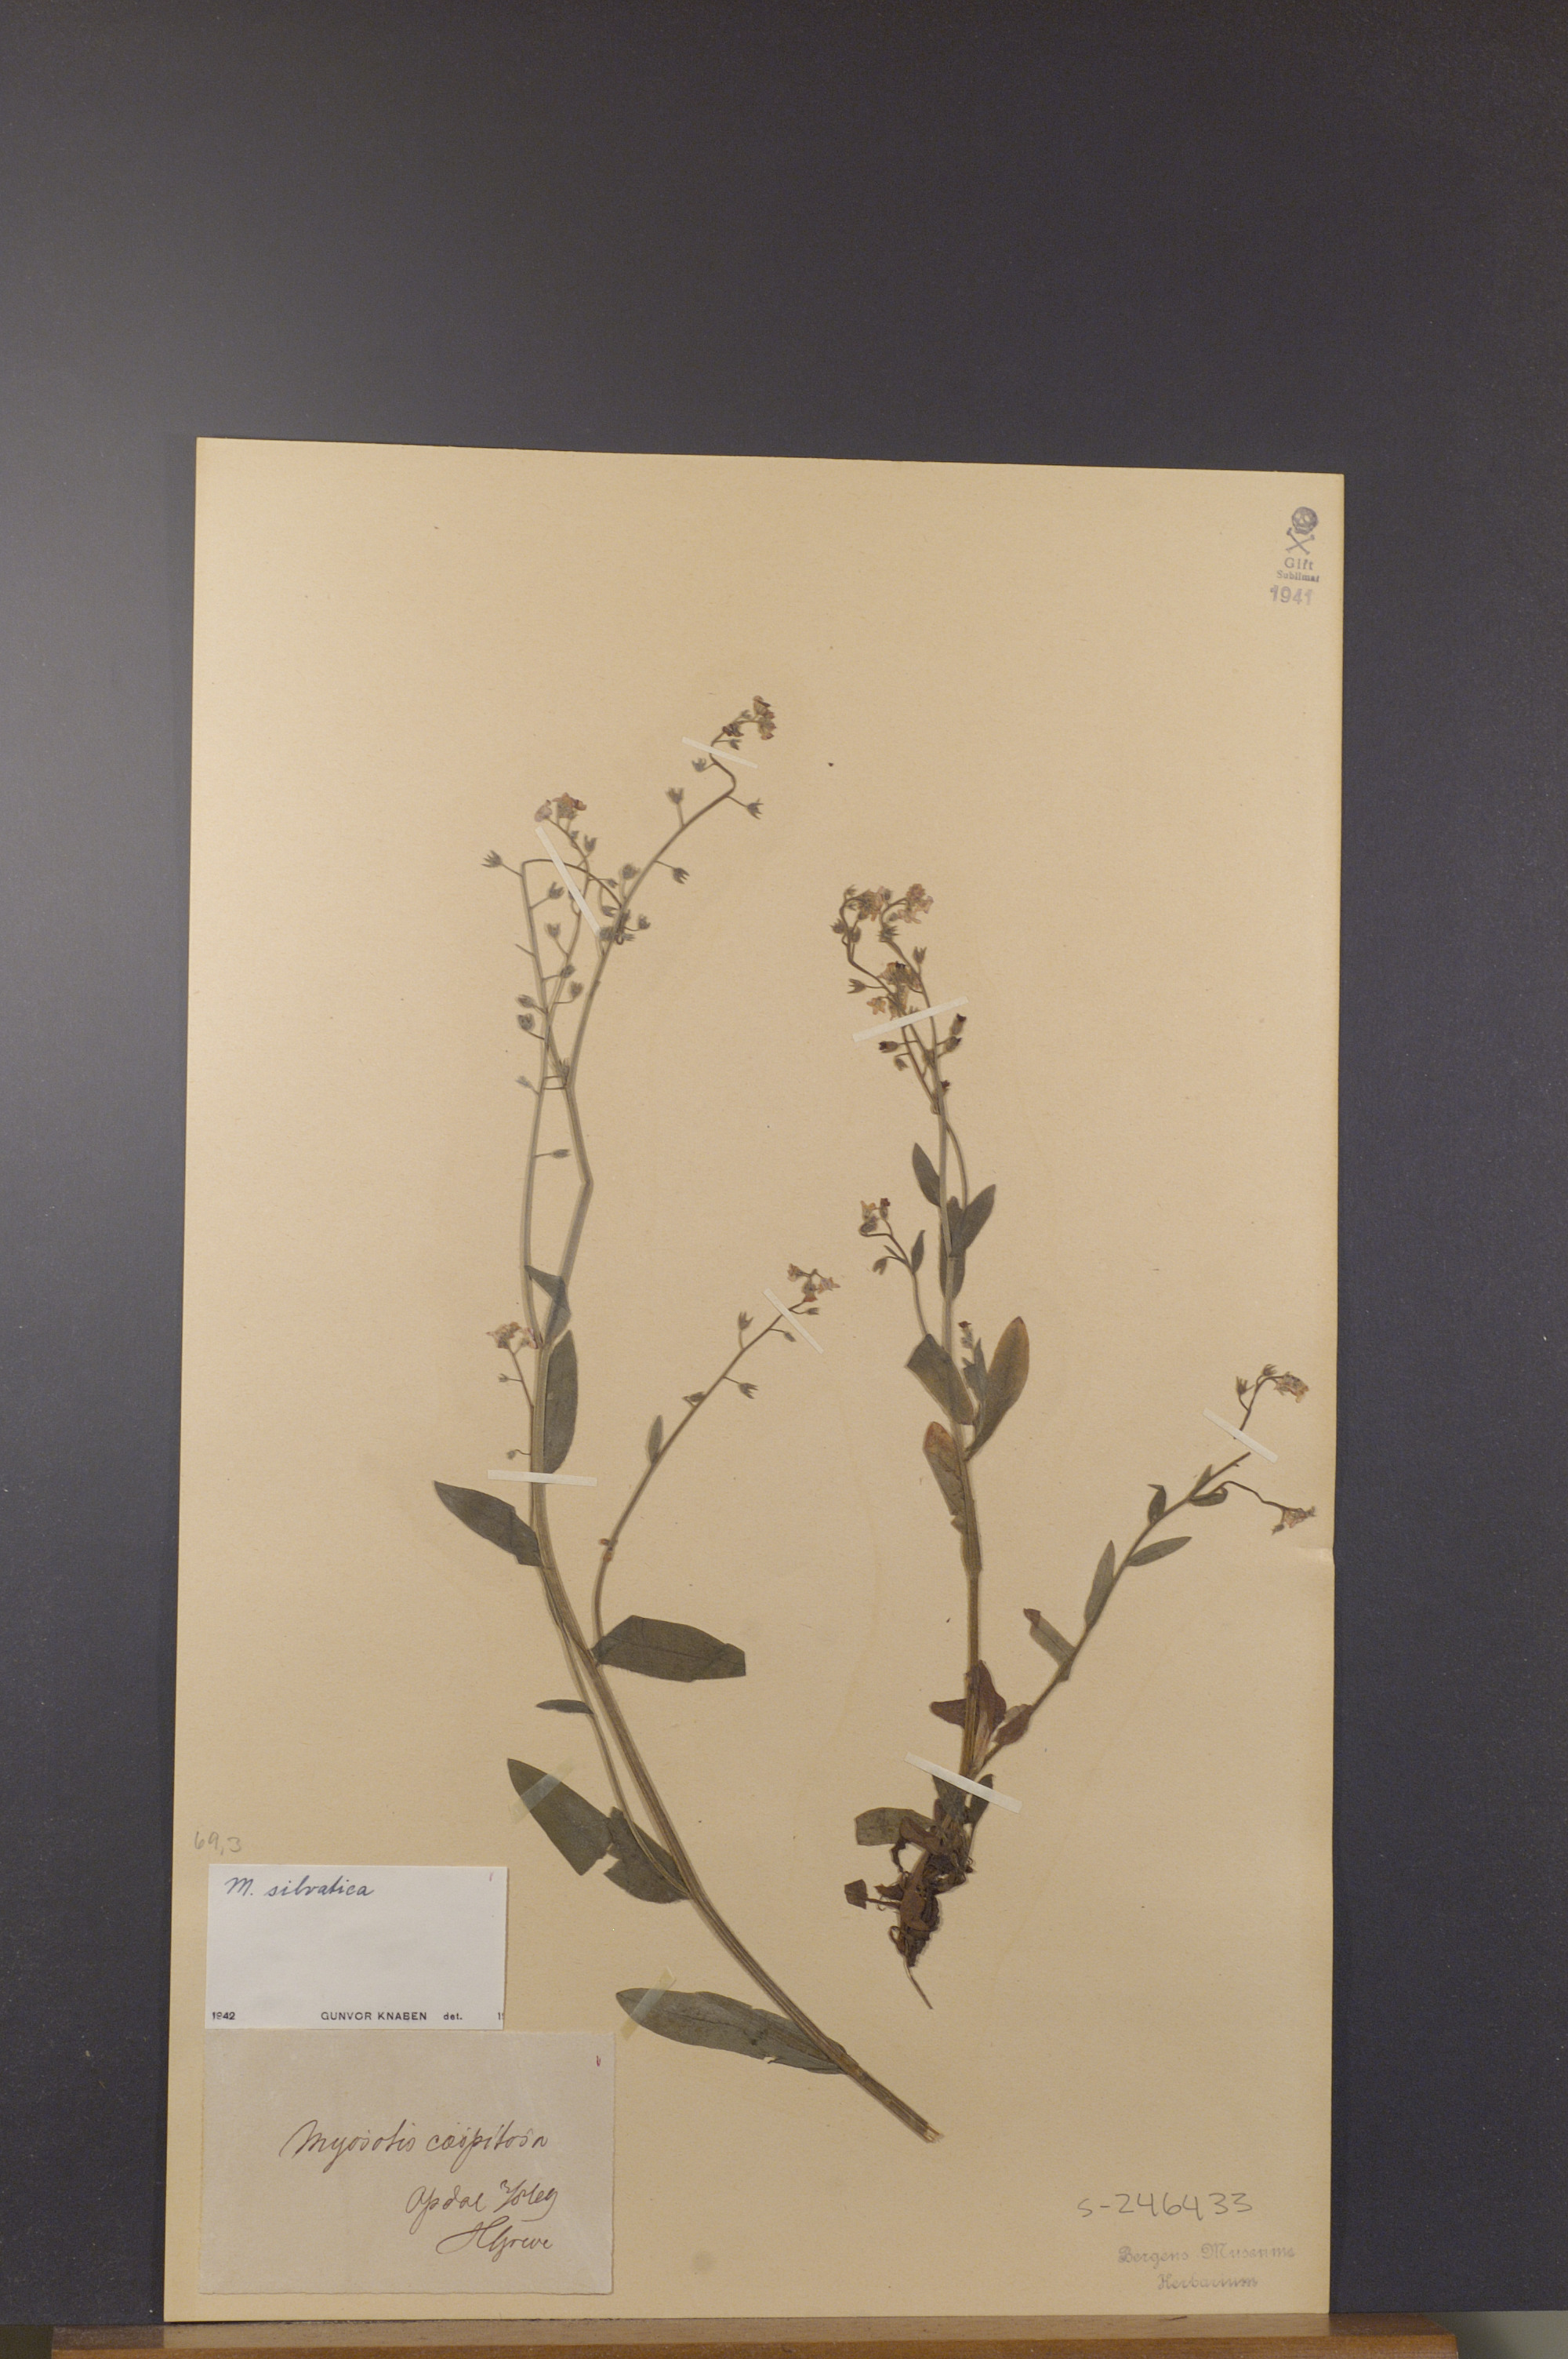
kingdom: Plantae
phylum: Tracheophyta
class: Magnoliopsida
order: Boraginales
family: Boraginaceae
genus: Myosotis
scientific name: Myosotis decumbens
